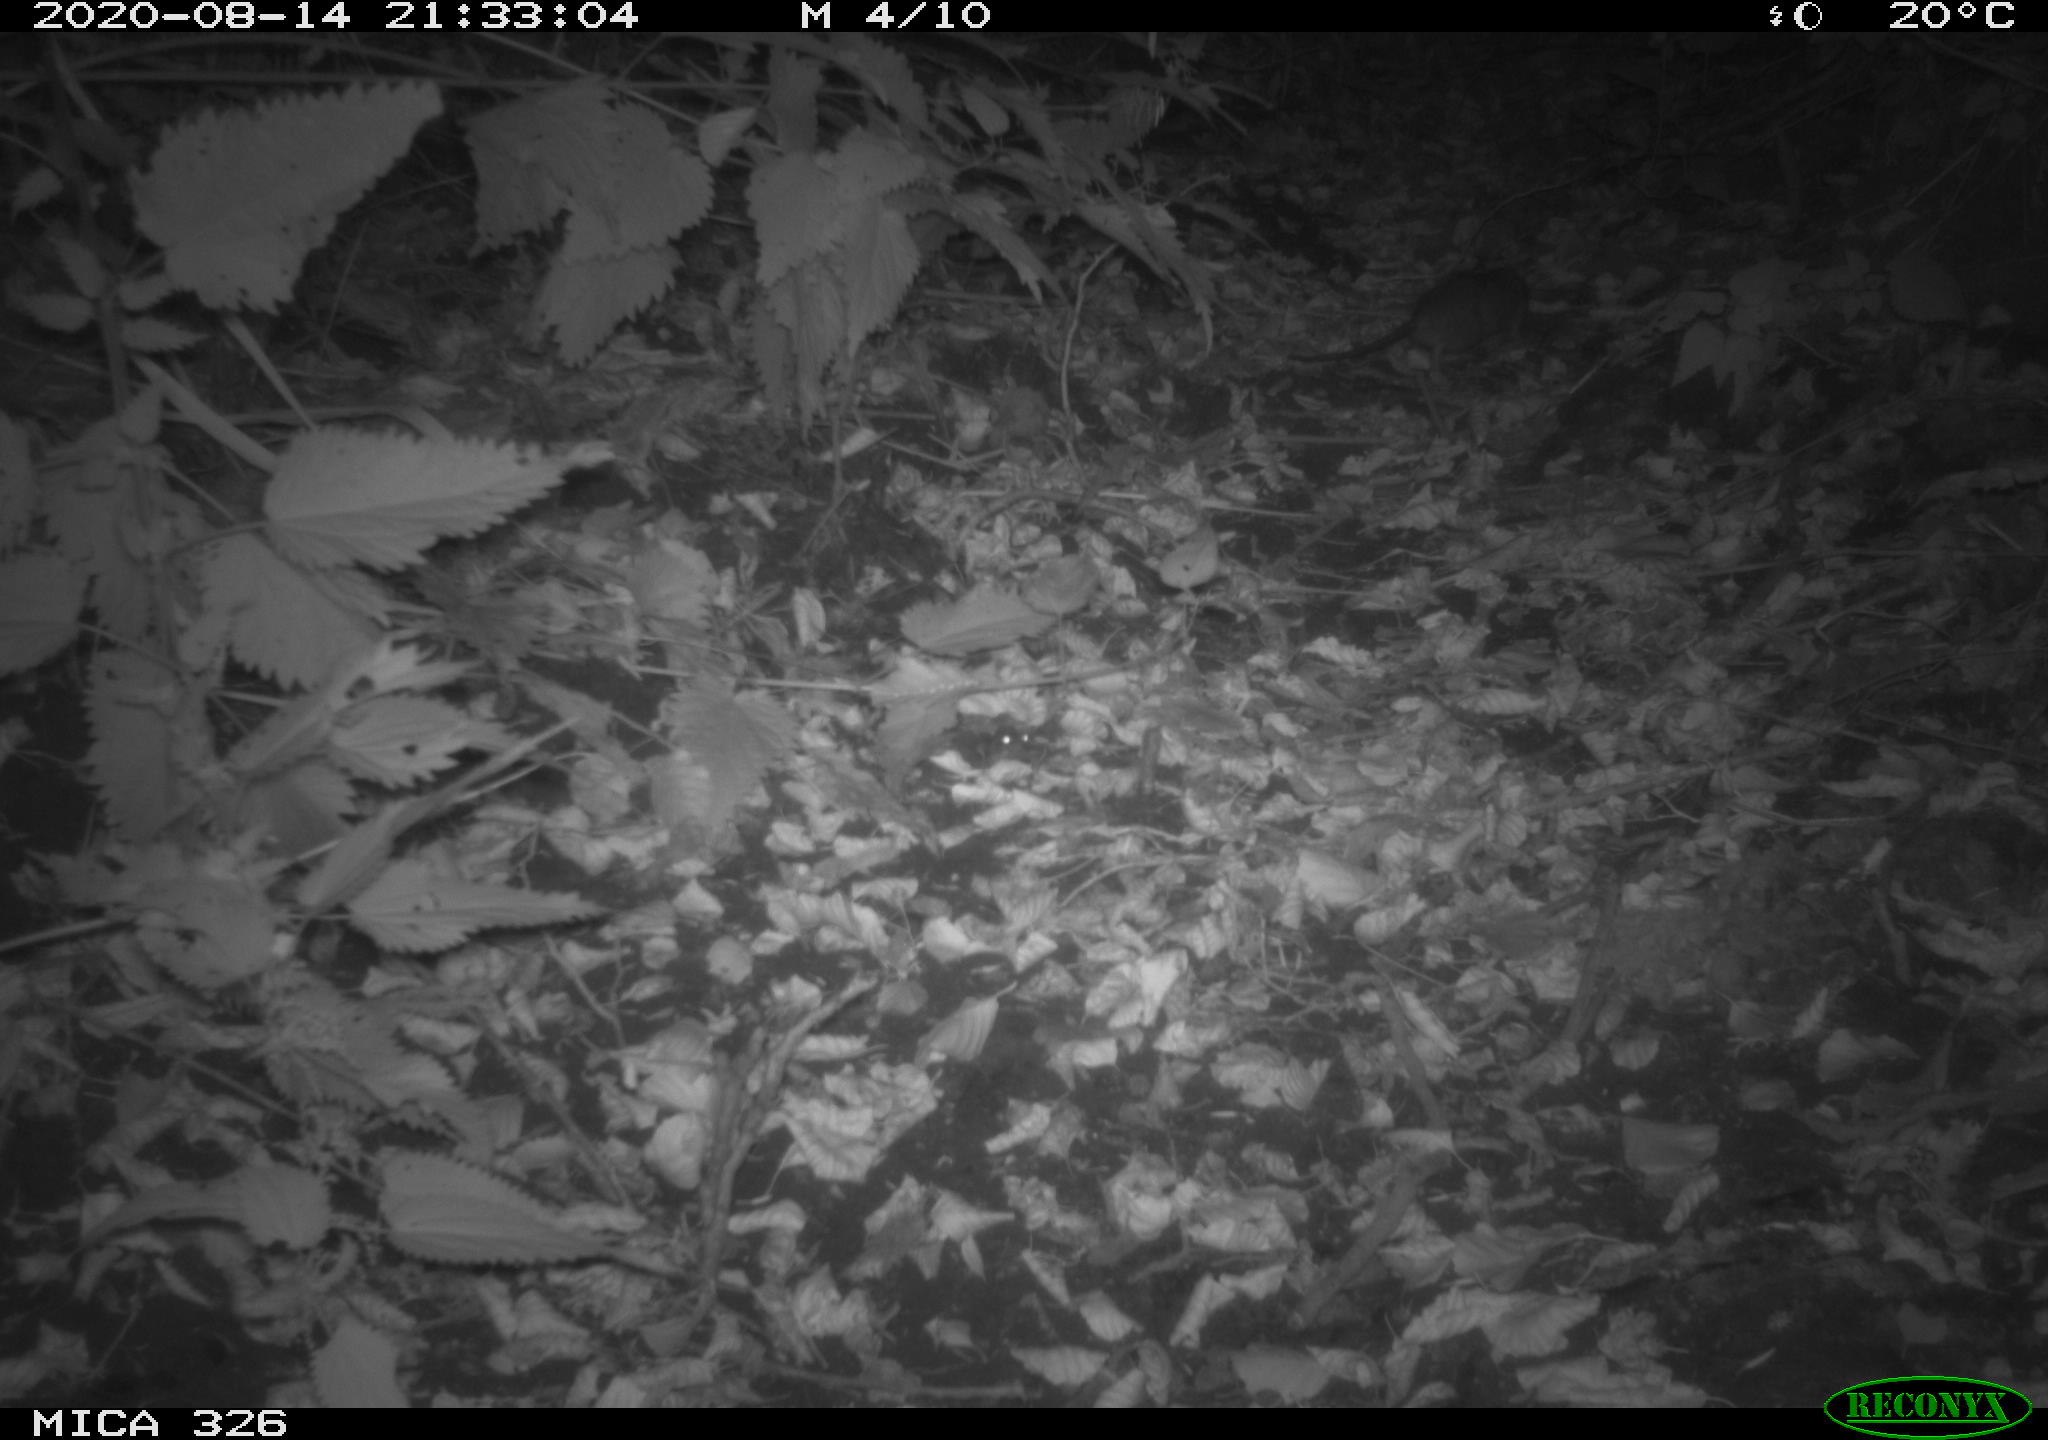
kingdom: Animalia
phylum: Chordata
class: Mammalia
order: Rodentia
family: Muridae
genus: Rattus
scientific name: Rattus norvegicus
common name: Brown rat
